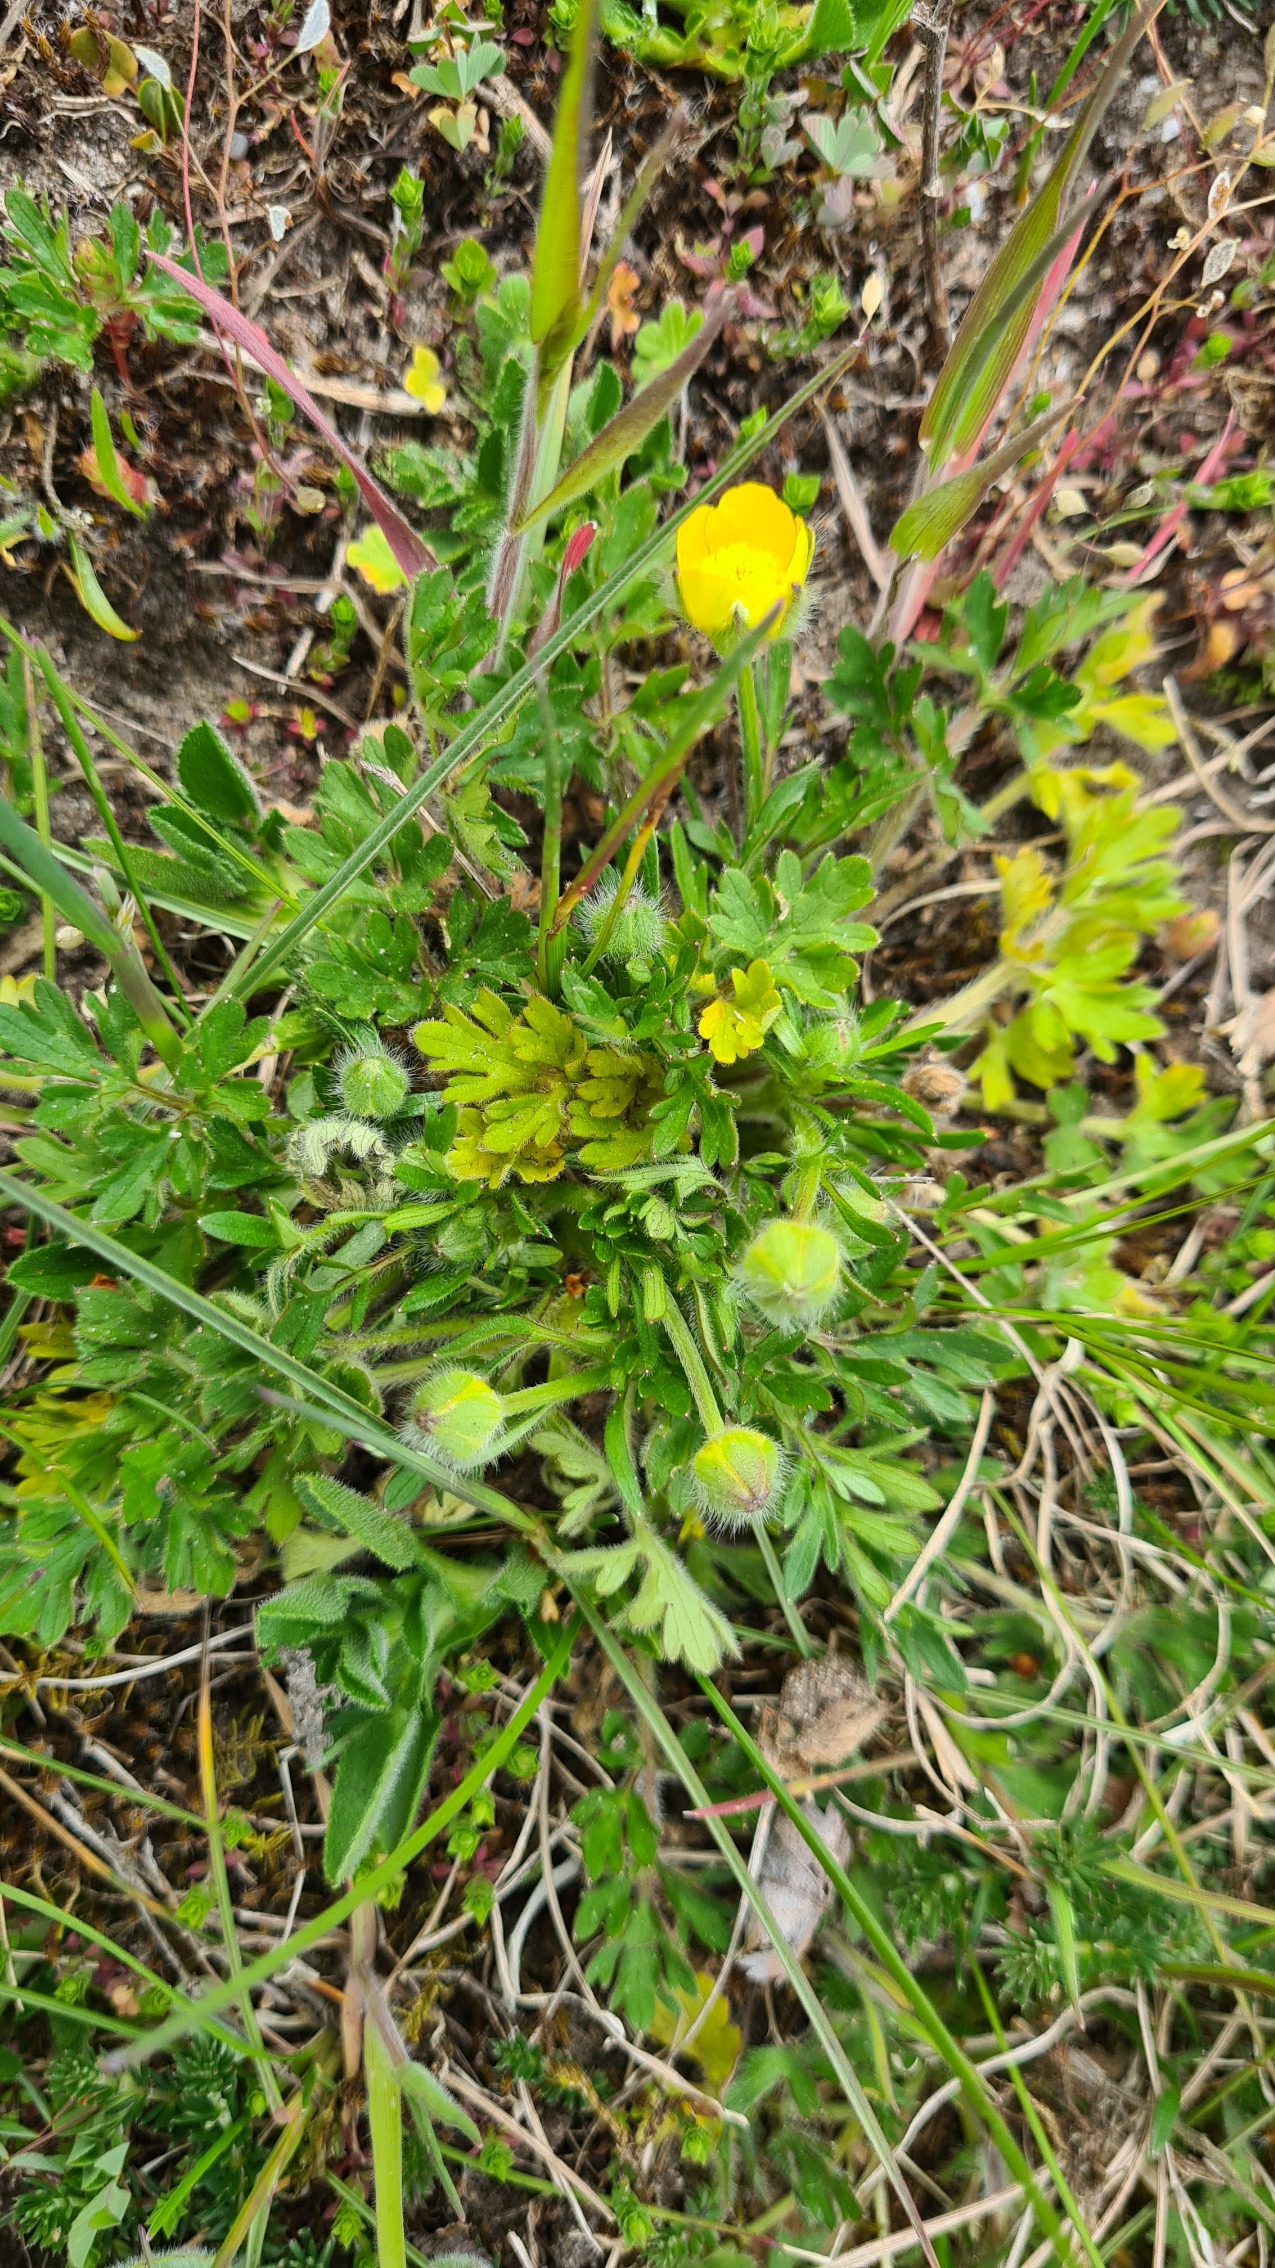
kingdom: Plantae
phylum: Tracheophyta
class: Magnoliopsida
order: Ranunculales
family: Ranunculaceae
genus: Ranunculus
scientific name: Ranunculus bulbosus
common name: Knold-ranunkel
